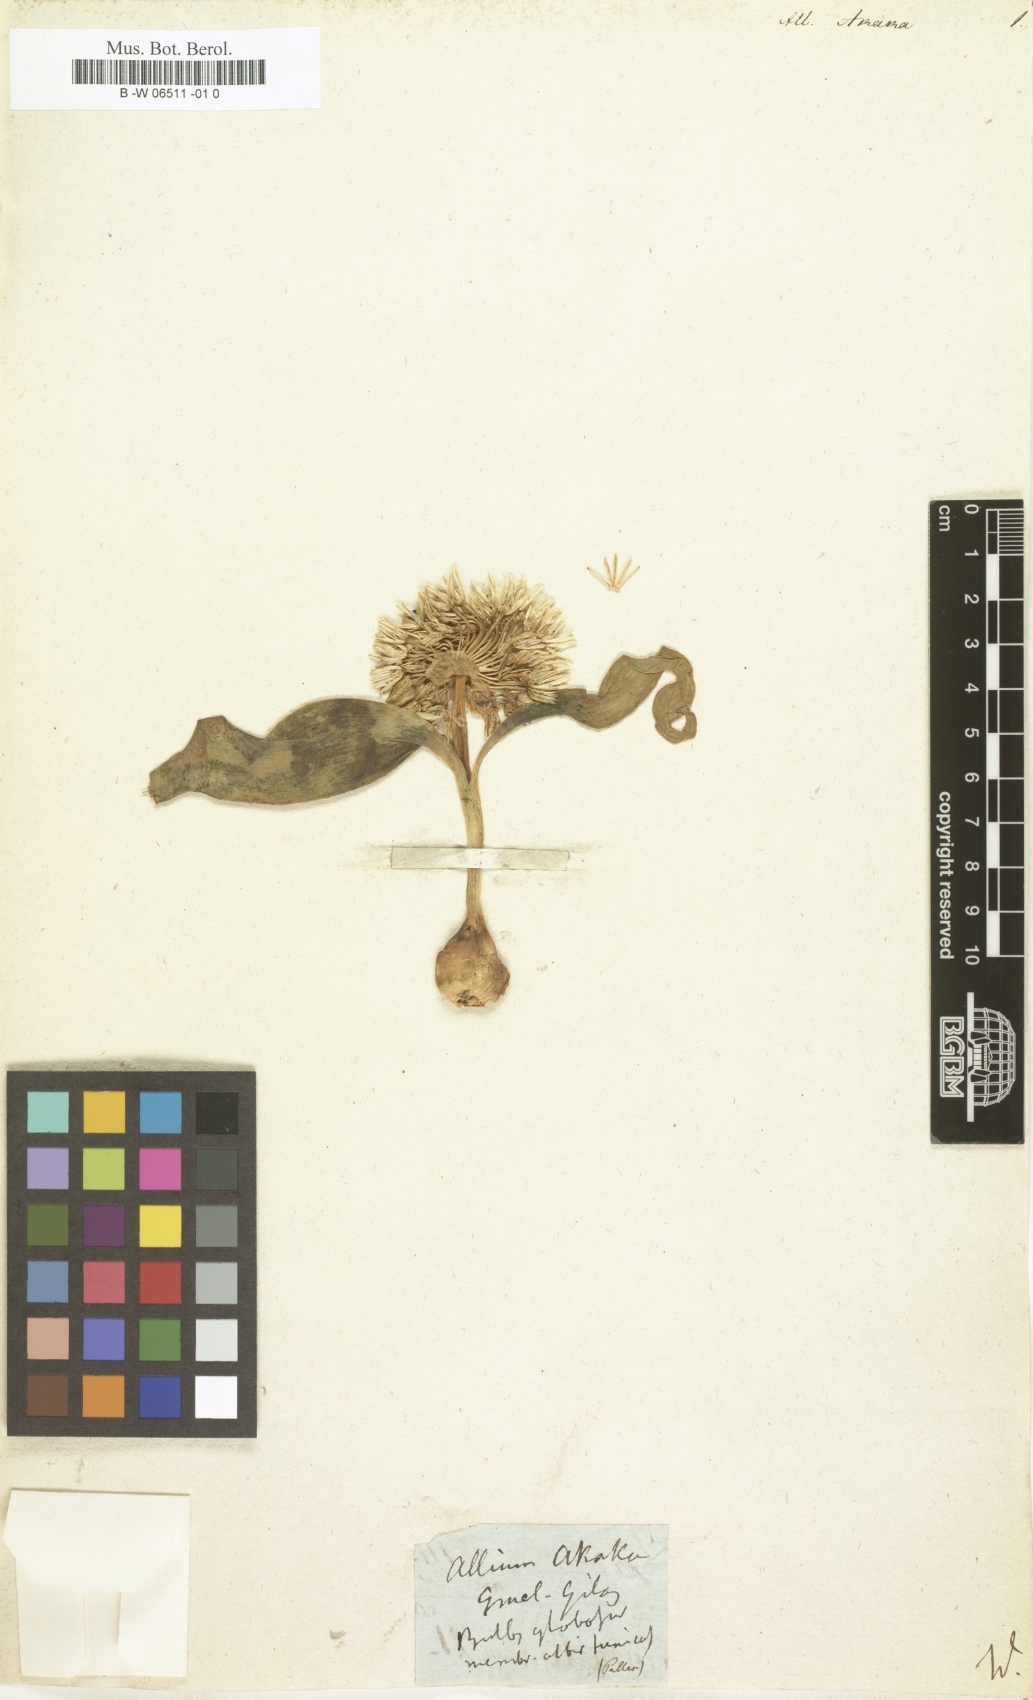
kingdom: Plantae
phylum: Tracheophyta
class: Liliopsida
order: Asparagales
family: Amaryllidaceae
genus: Allium
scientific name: Allium akaka
